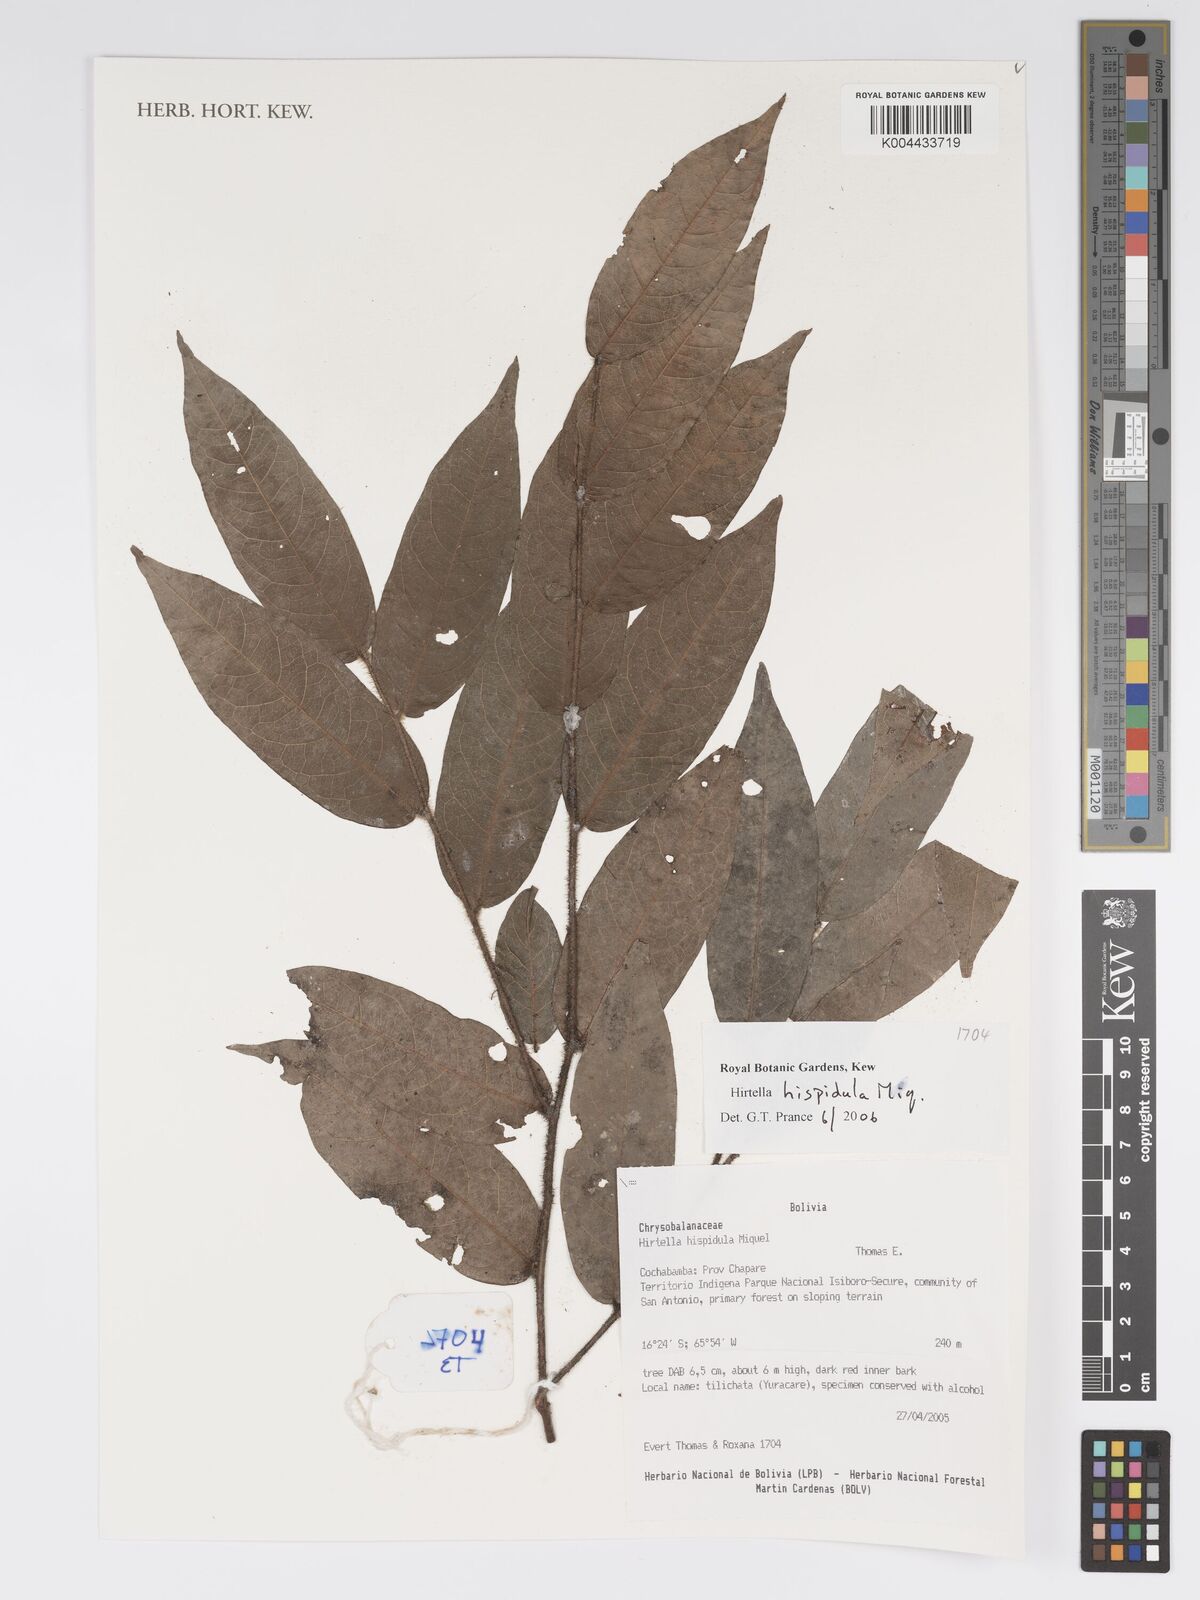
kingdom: Plantae
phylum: Tracheophyta
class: Magnoliopsida
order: Malpighiales
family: Chrysobalanaceae
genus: Hirtella
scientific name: Hirtella hispidula
